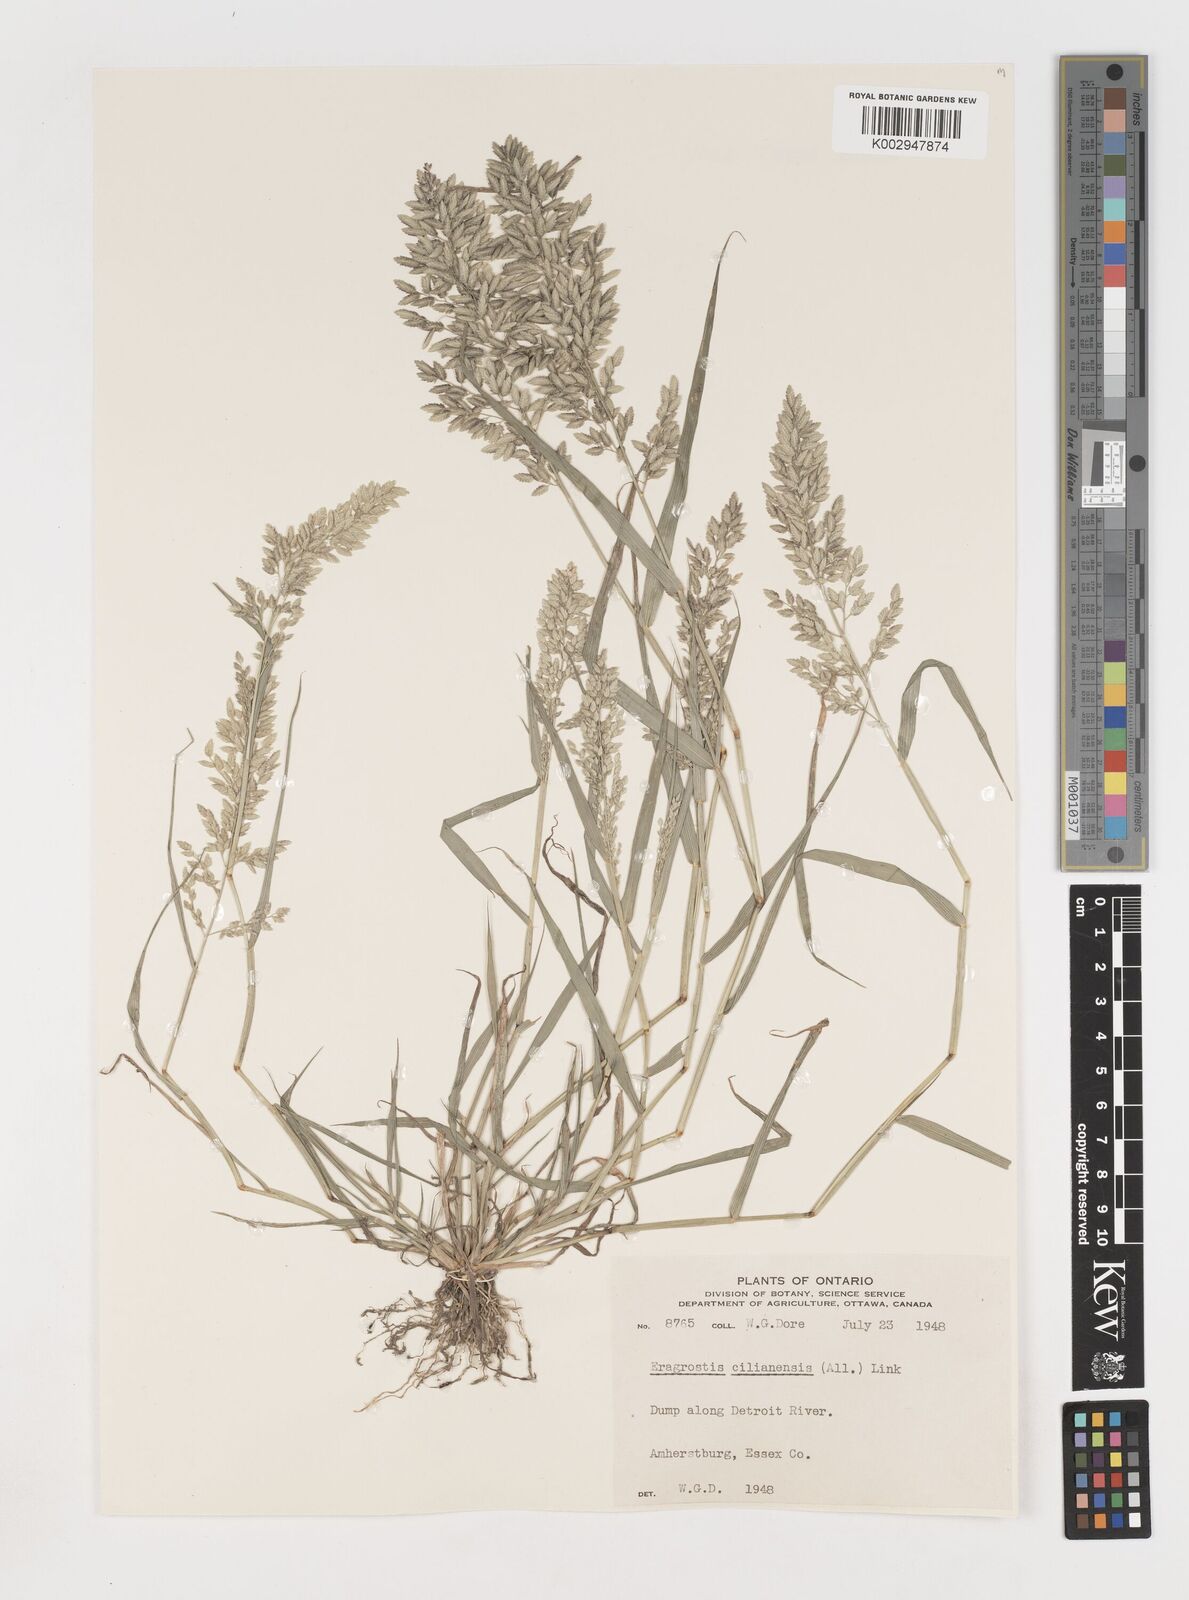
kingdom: Plantae
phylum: Tracheophyta
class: Liliopsida
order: Poales
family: Poaceae
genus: Eragrostis
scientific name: Eragrostis cilianensis
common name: Stinkgrass
